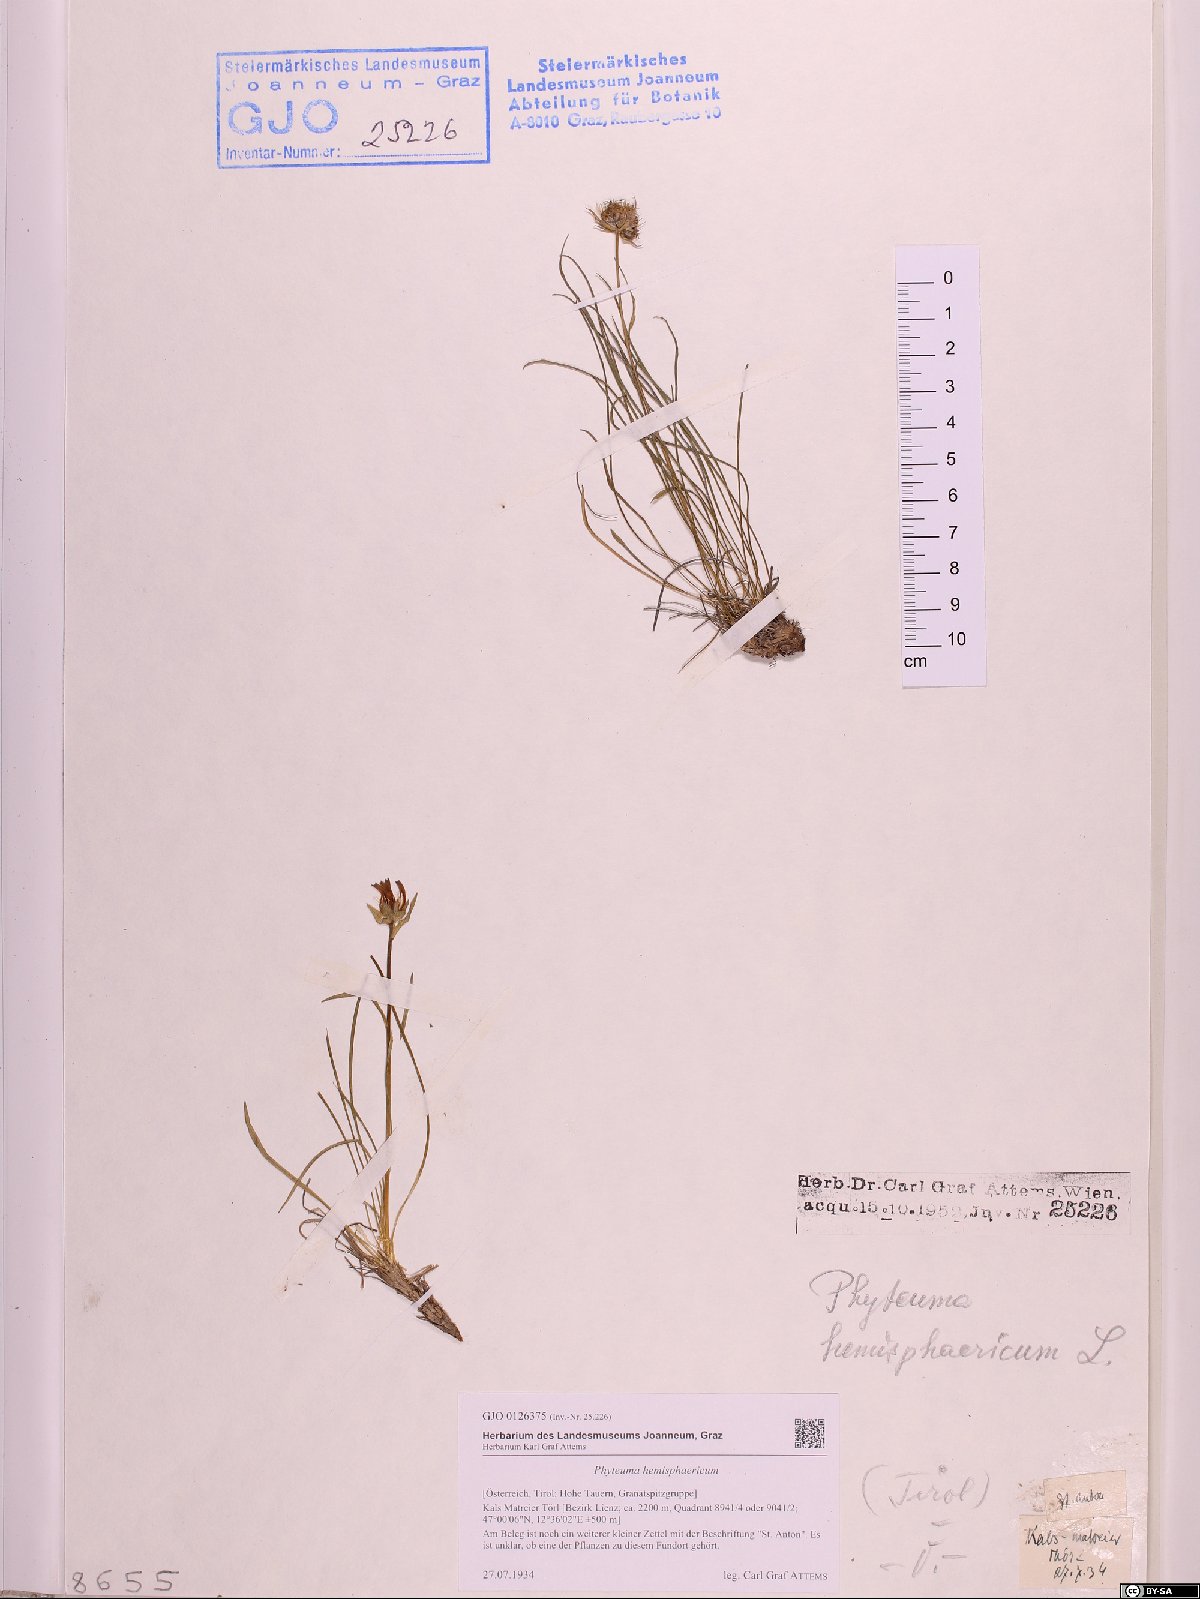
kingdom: Plantae
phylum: Tracheophyta
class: Magnoliopsida
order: Asterales
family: Campanulaceae
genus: Phyteuma
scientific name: Phyteuma hemisphaericum
